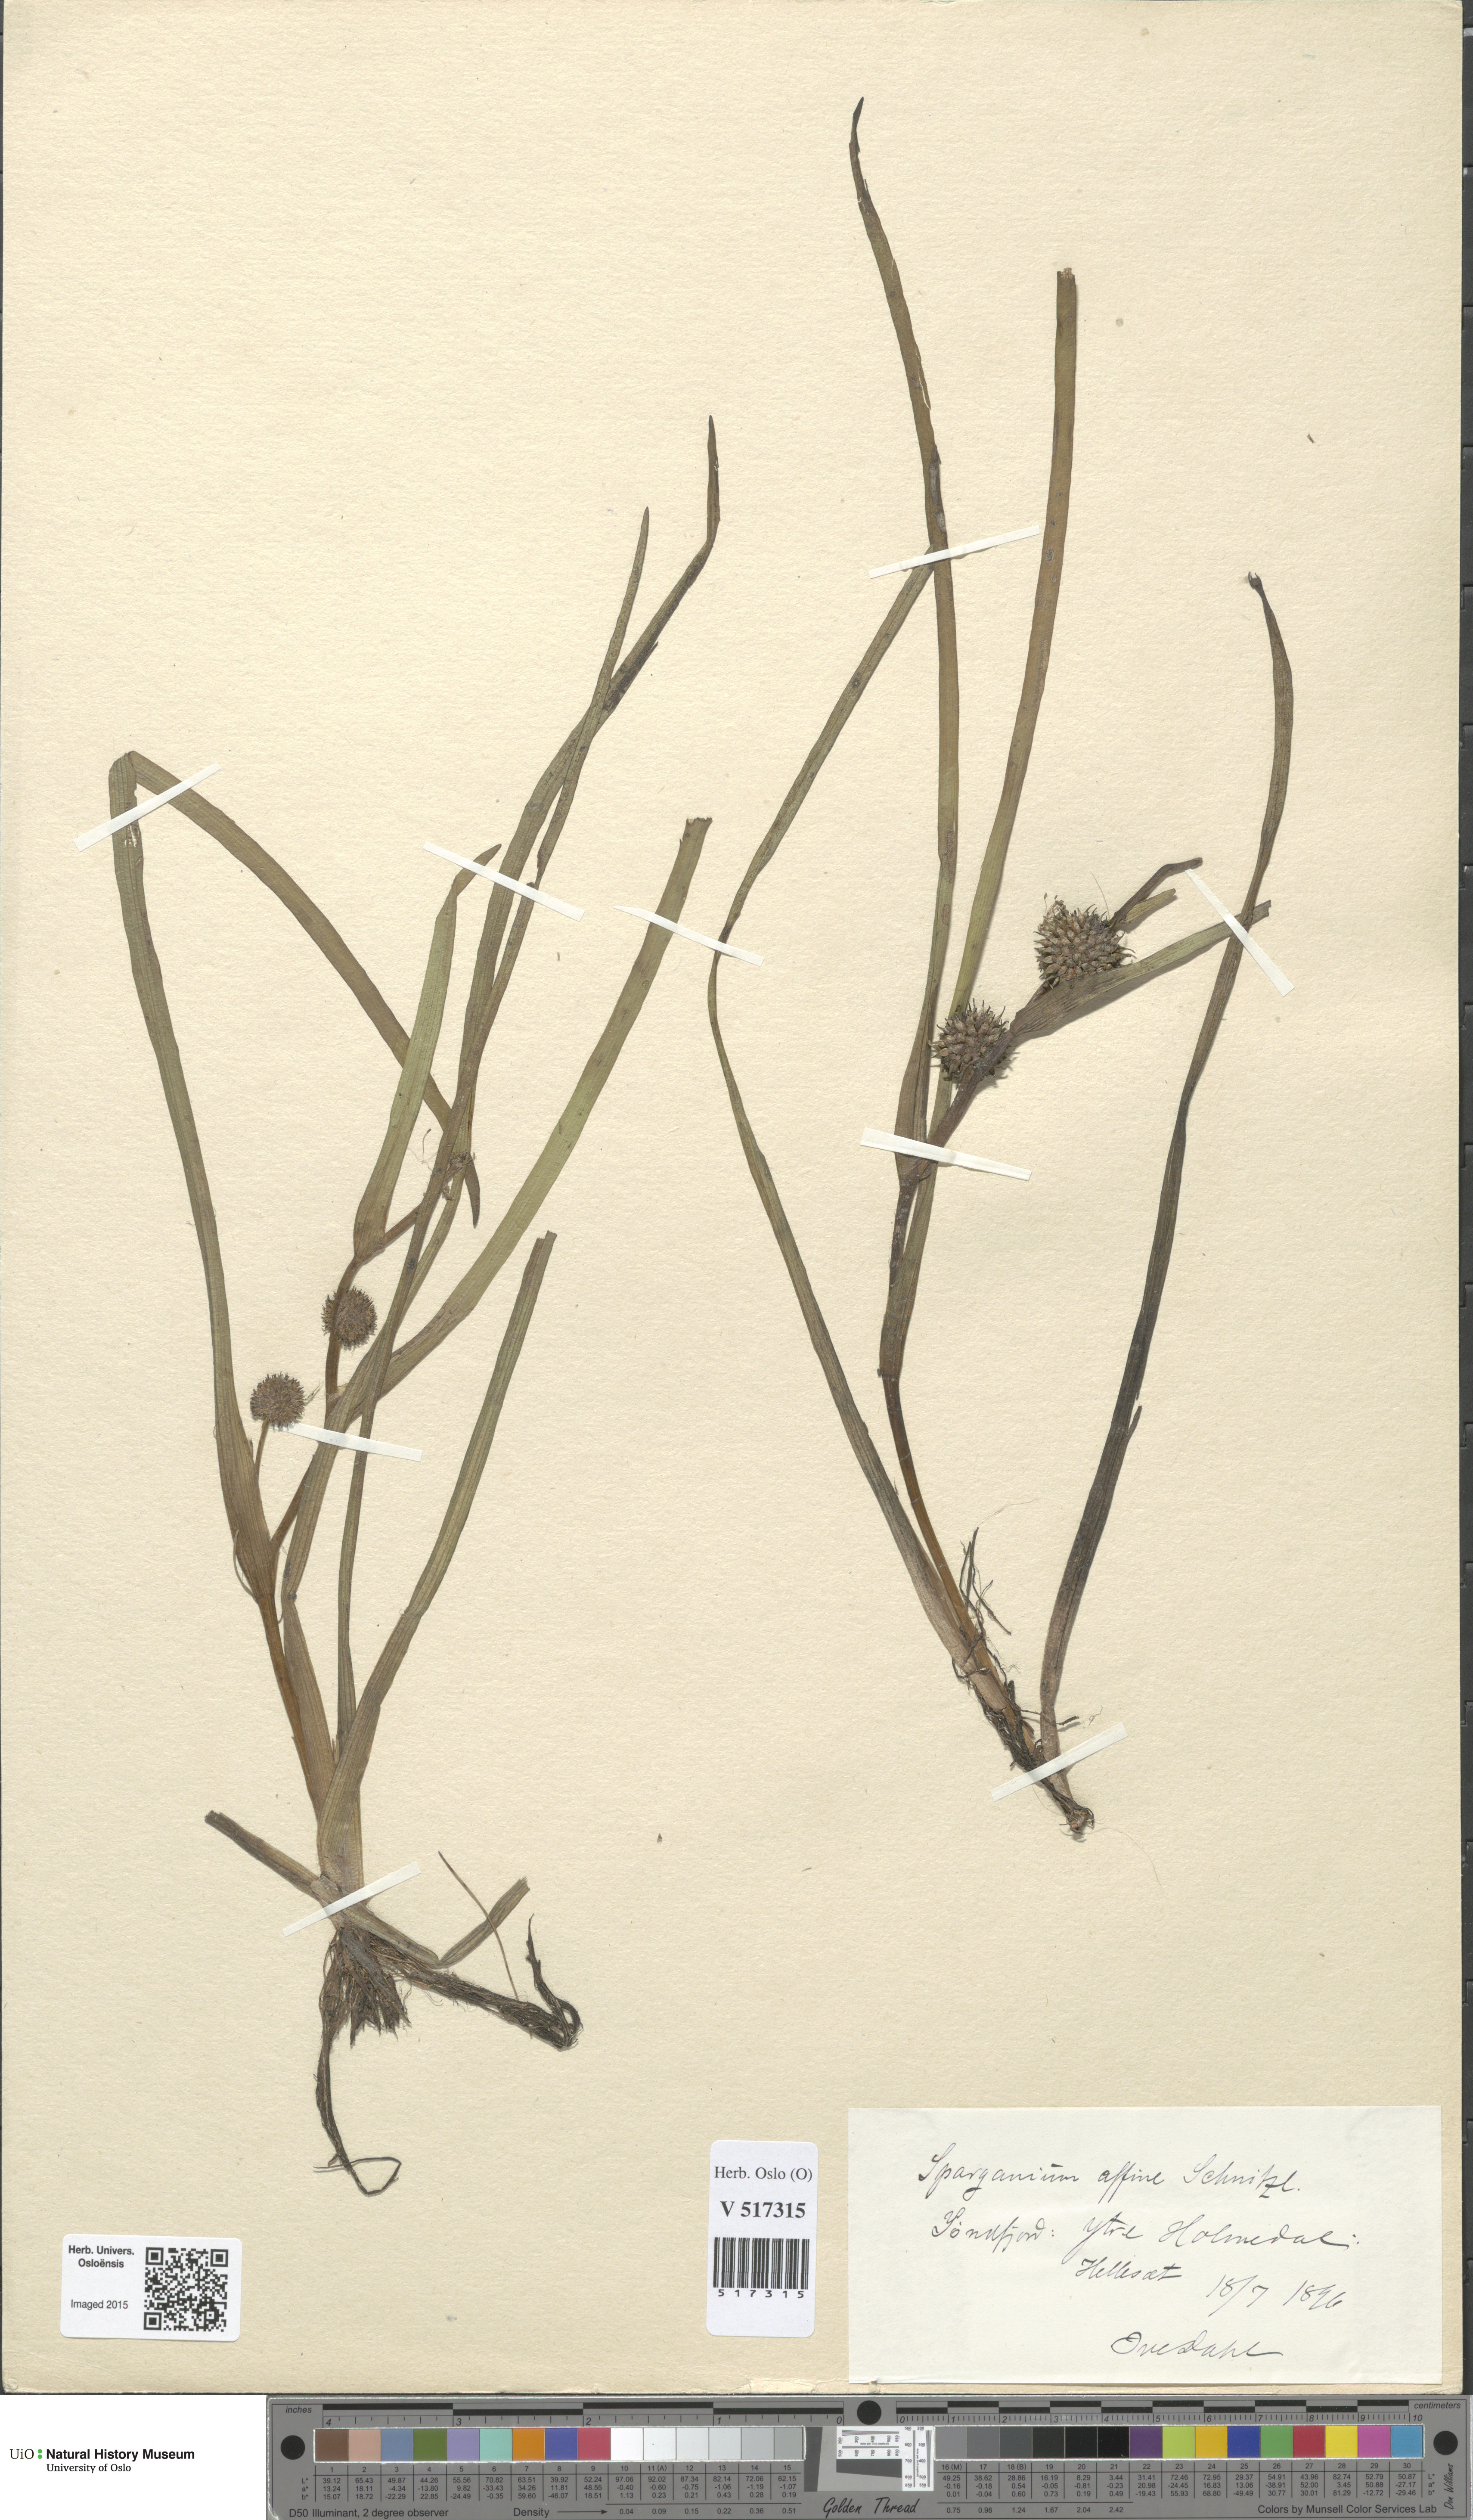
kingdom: Plantae
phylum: Tracheophyta
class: Liliopsida
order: Poales
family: Typhaceae
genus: Sparganium
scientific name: Sparganium angustifolium
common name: Floating bur-reed
